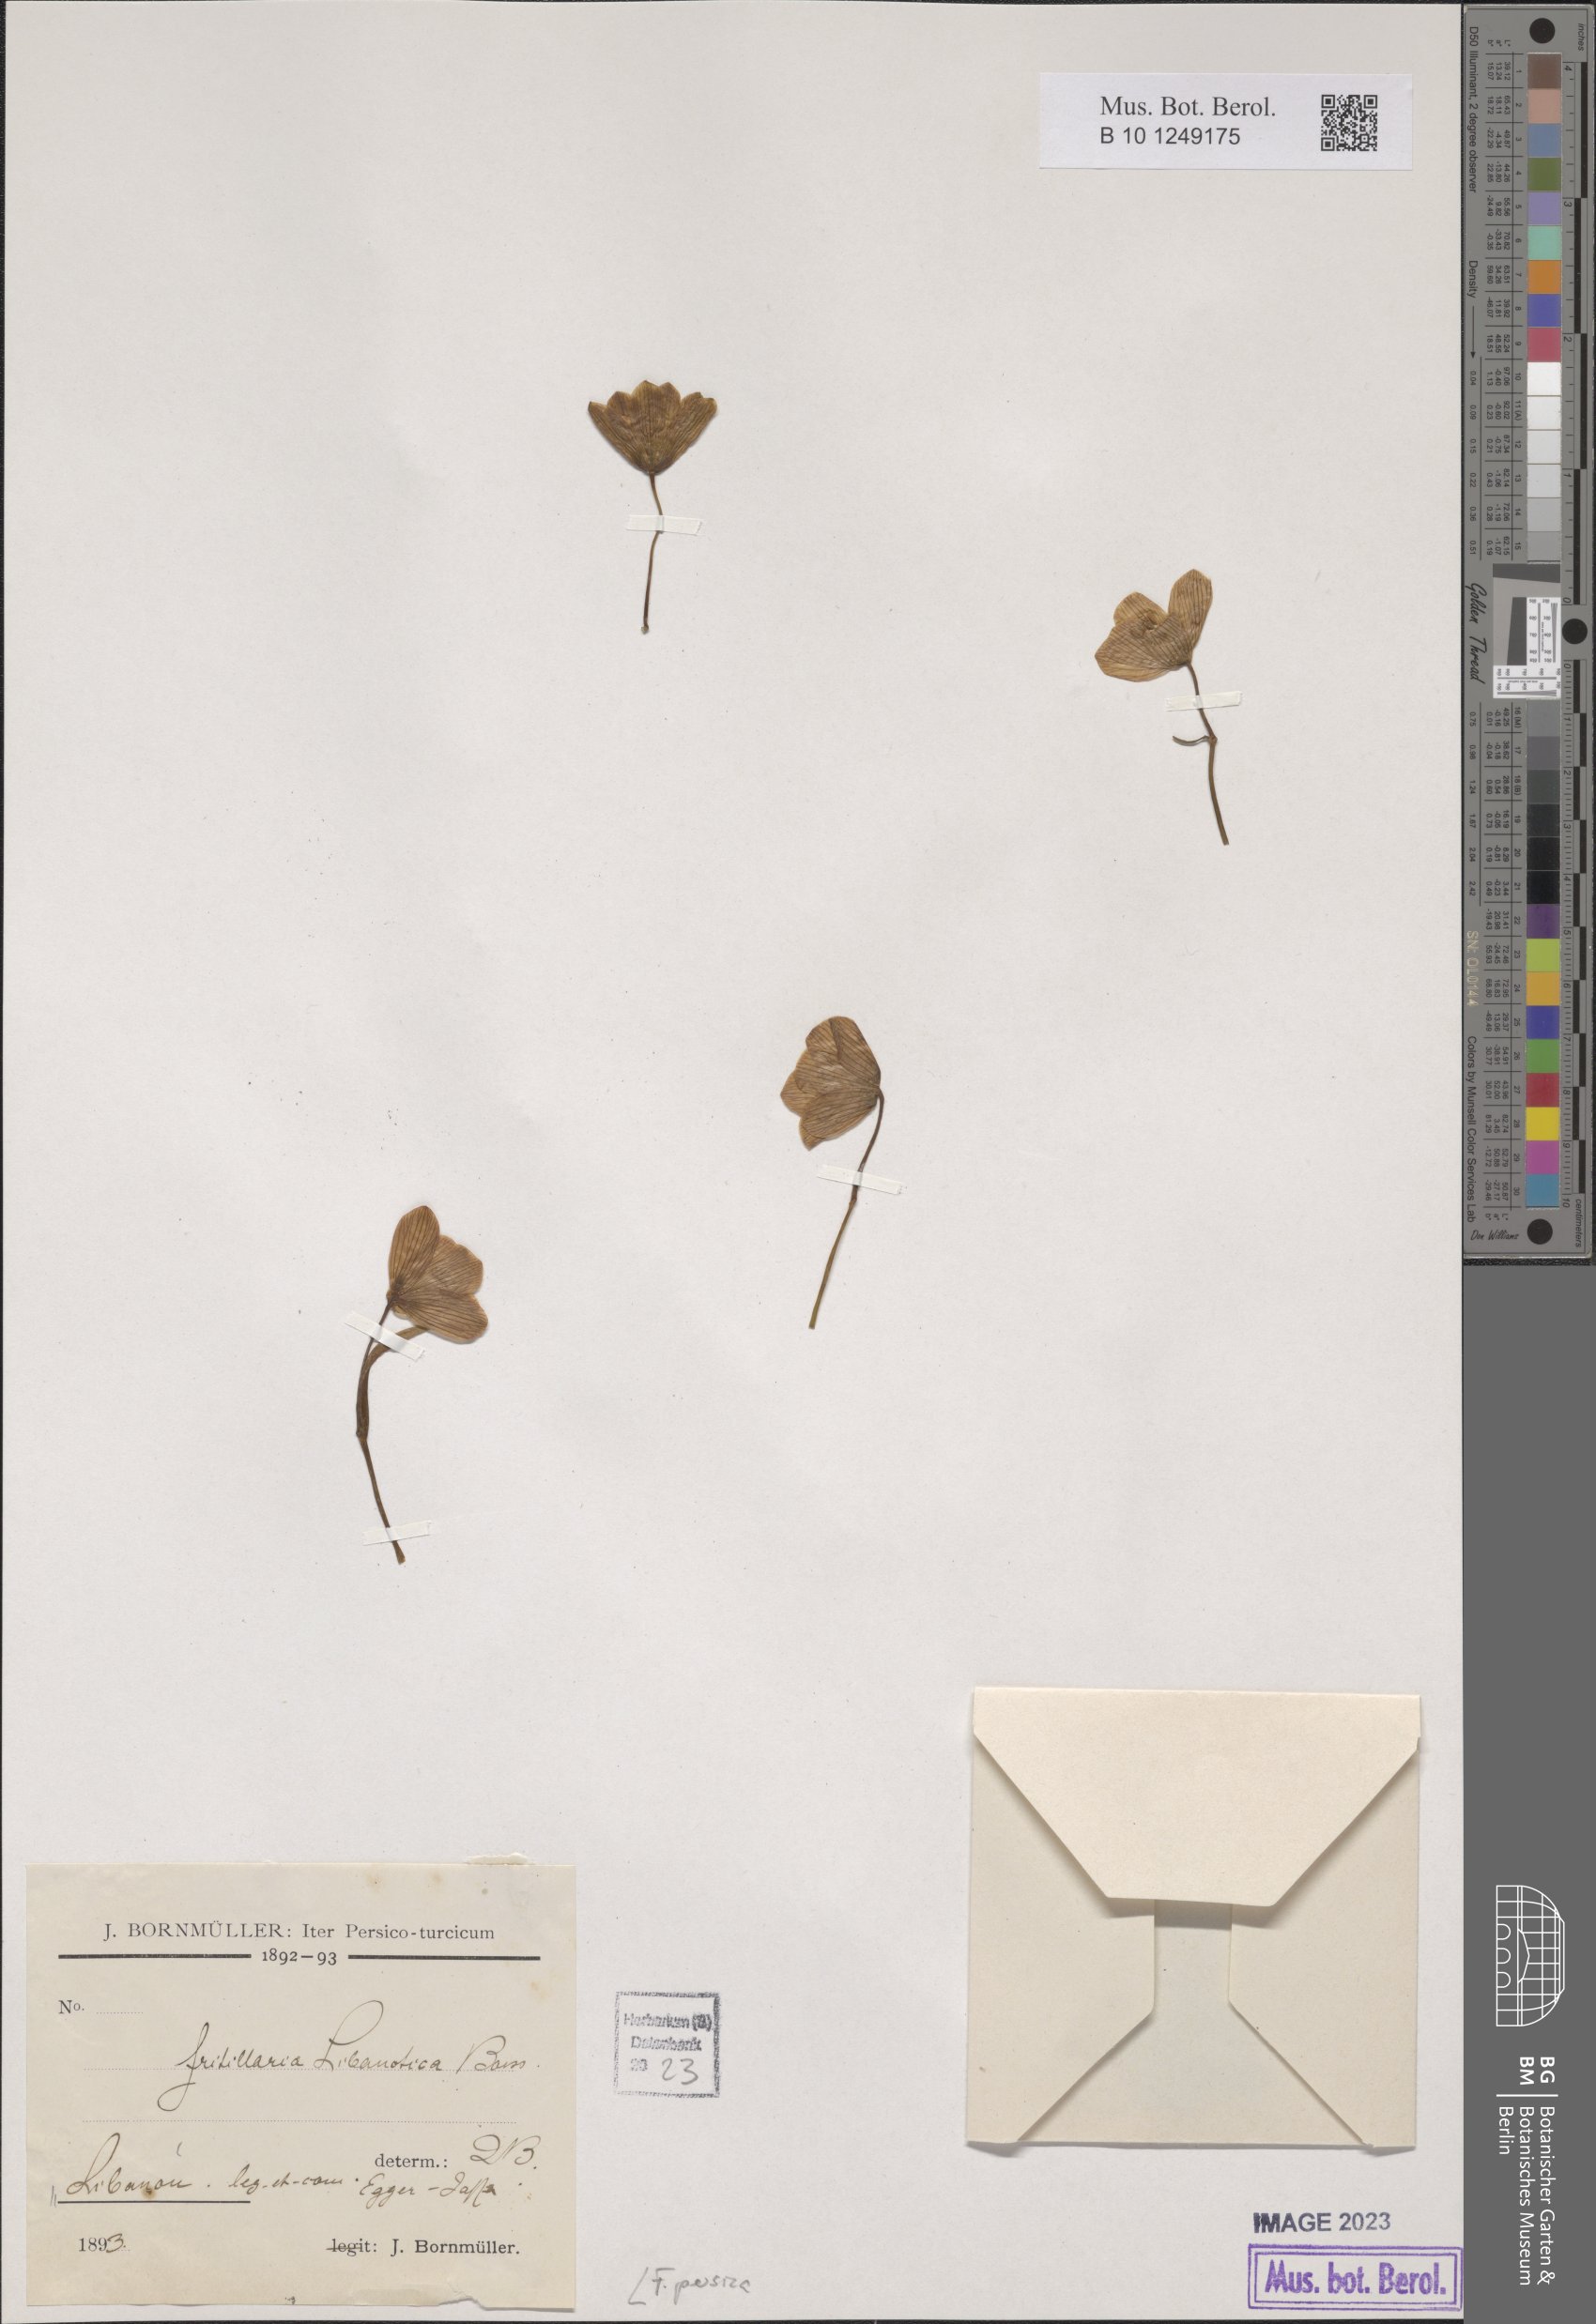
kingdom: Plantae
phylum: Tracheophyta
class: Liliopsida
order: Liliales
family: Liliaceae
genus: Fritillaria
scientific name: Fritillaria persica
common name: Persian fritillary
